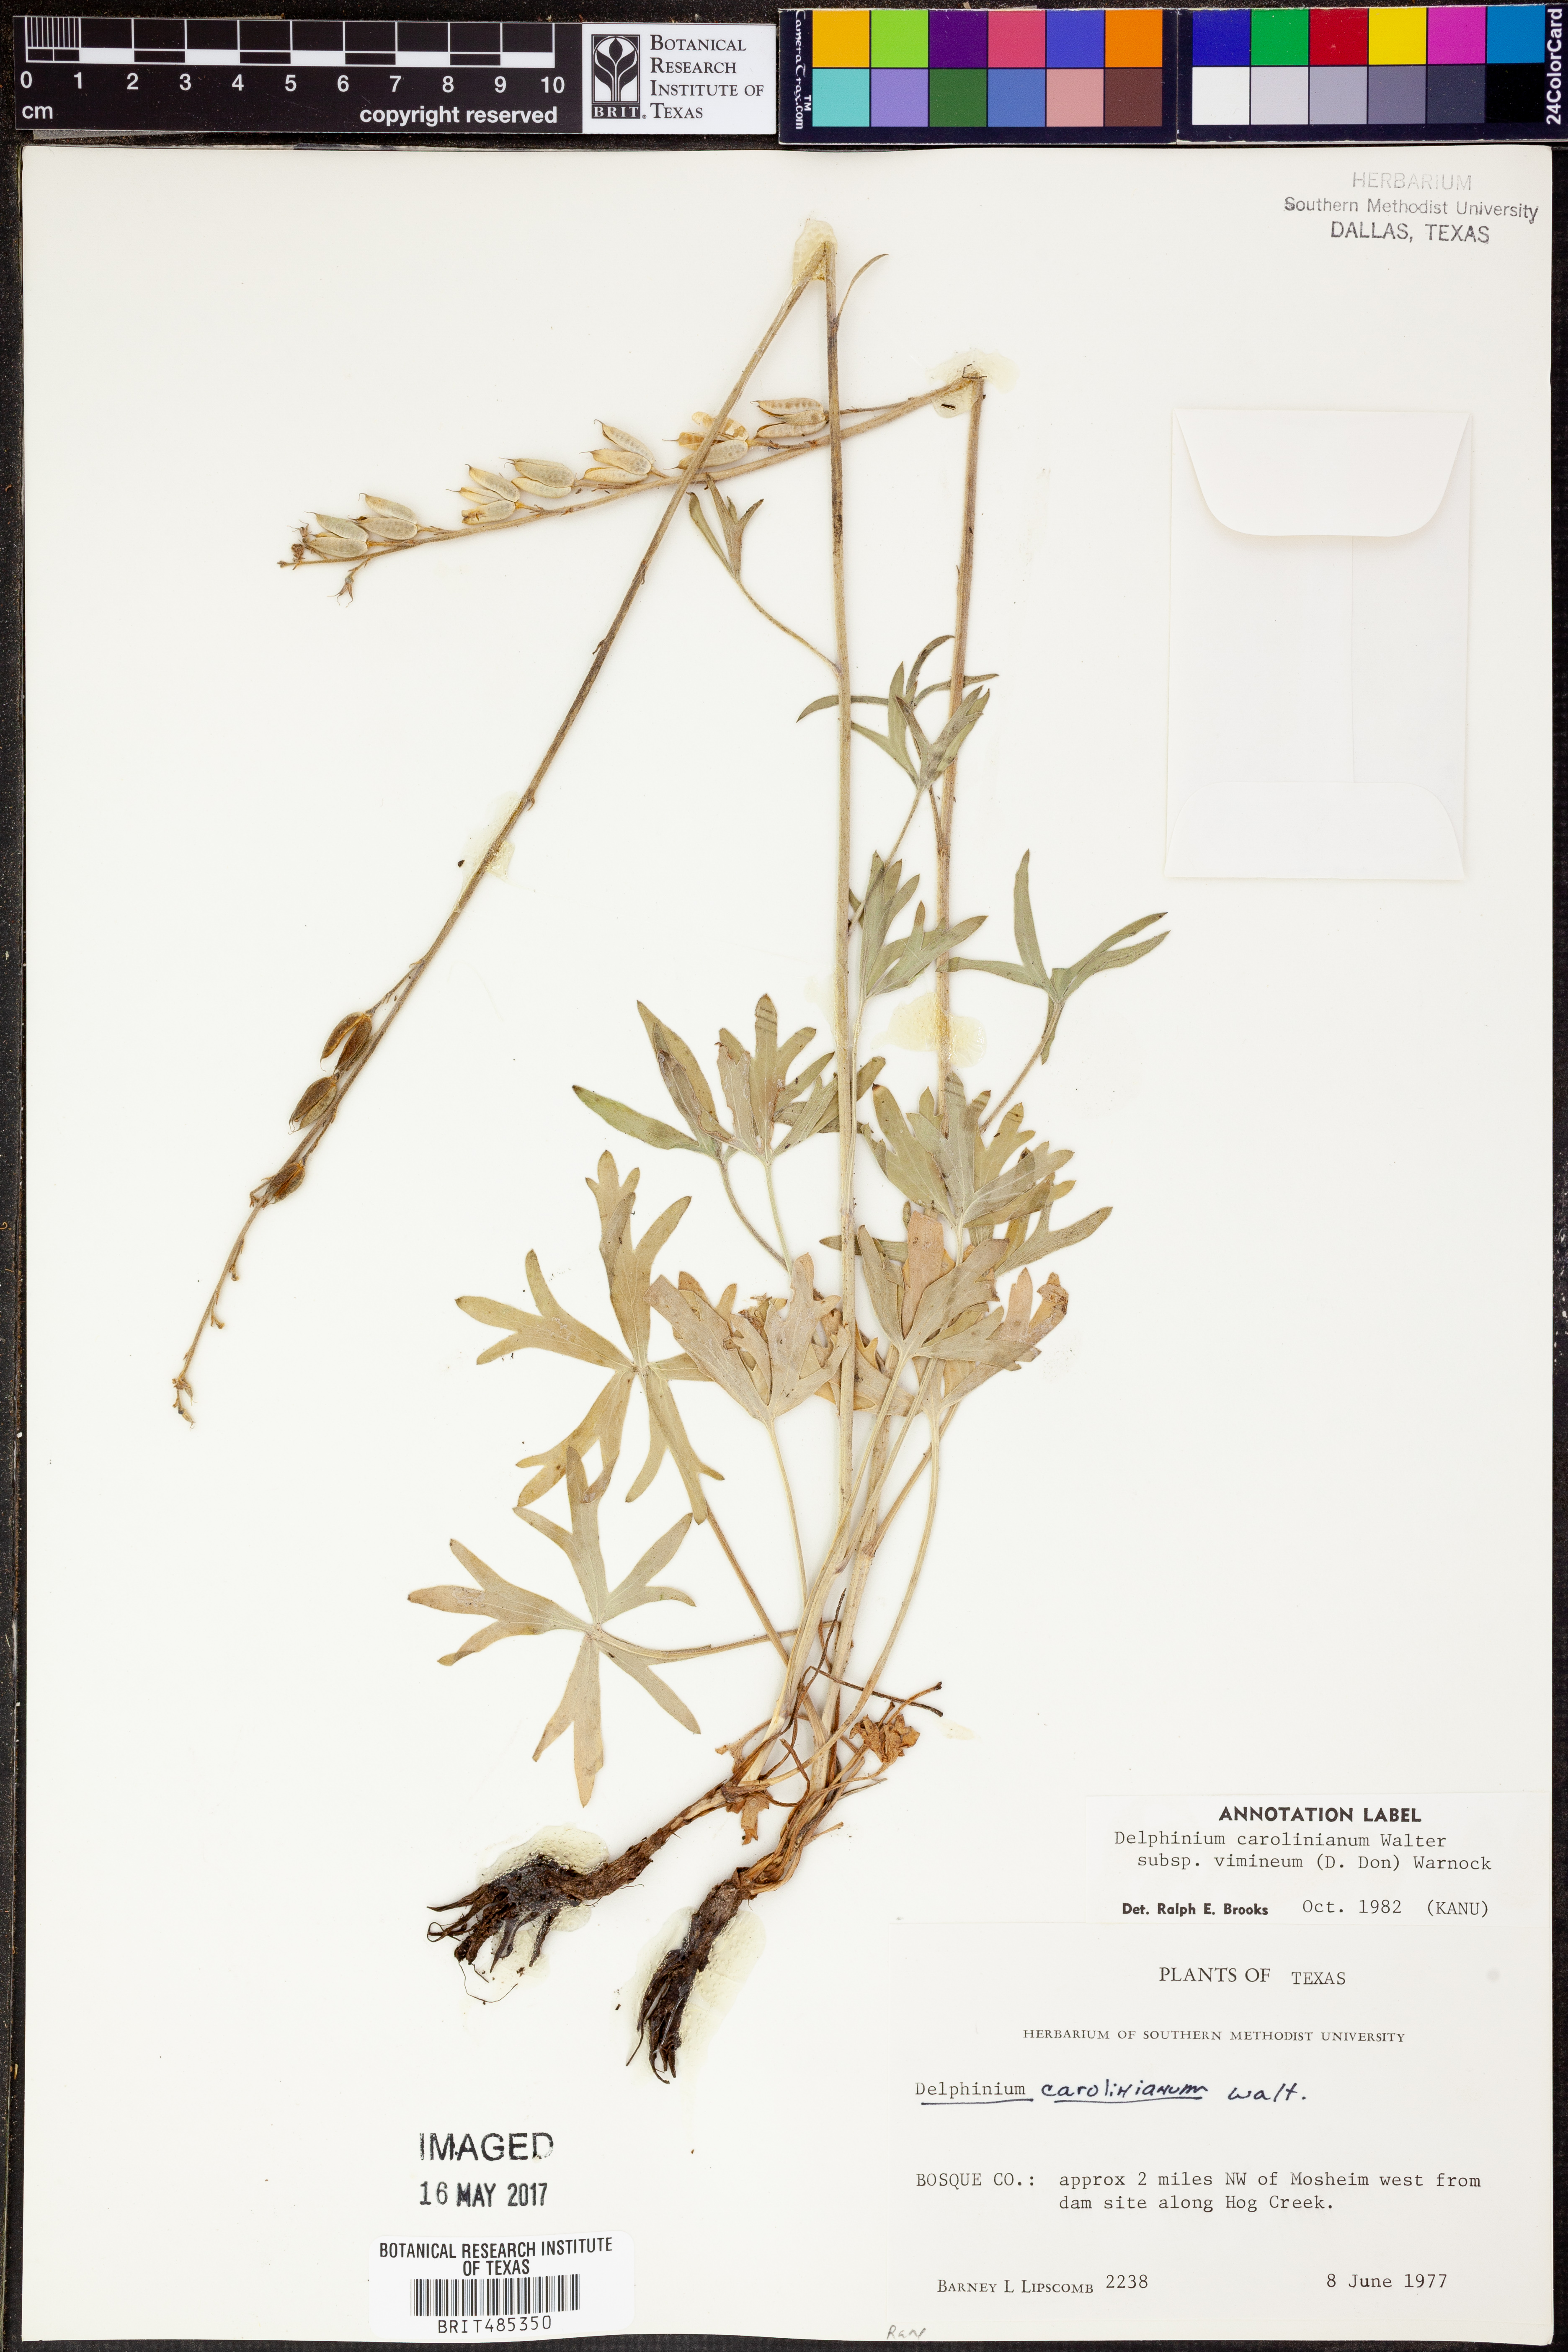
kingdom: Plantae
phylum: Tracheophyta
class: Magnoliopsida
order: Ranunculales
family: Ranunculaceae
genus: Delphinium
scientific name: Delphinium carolinianum
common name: Carolina larkspur
